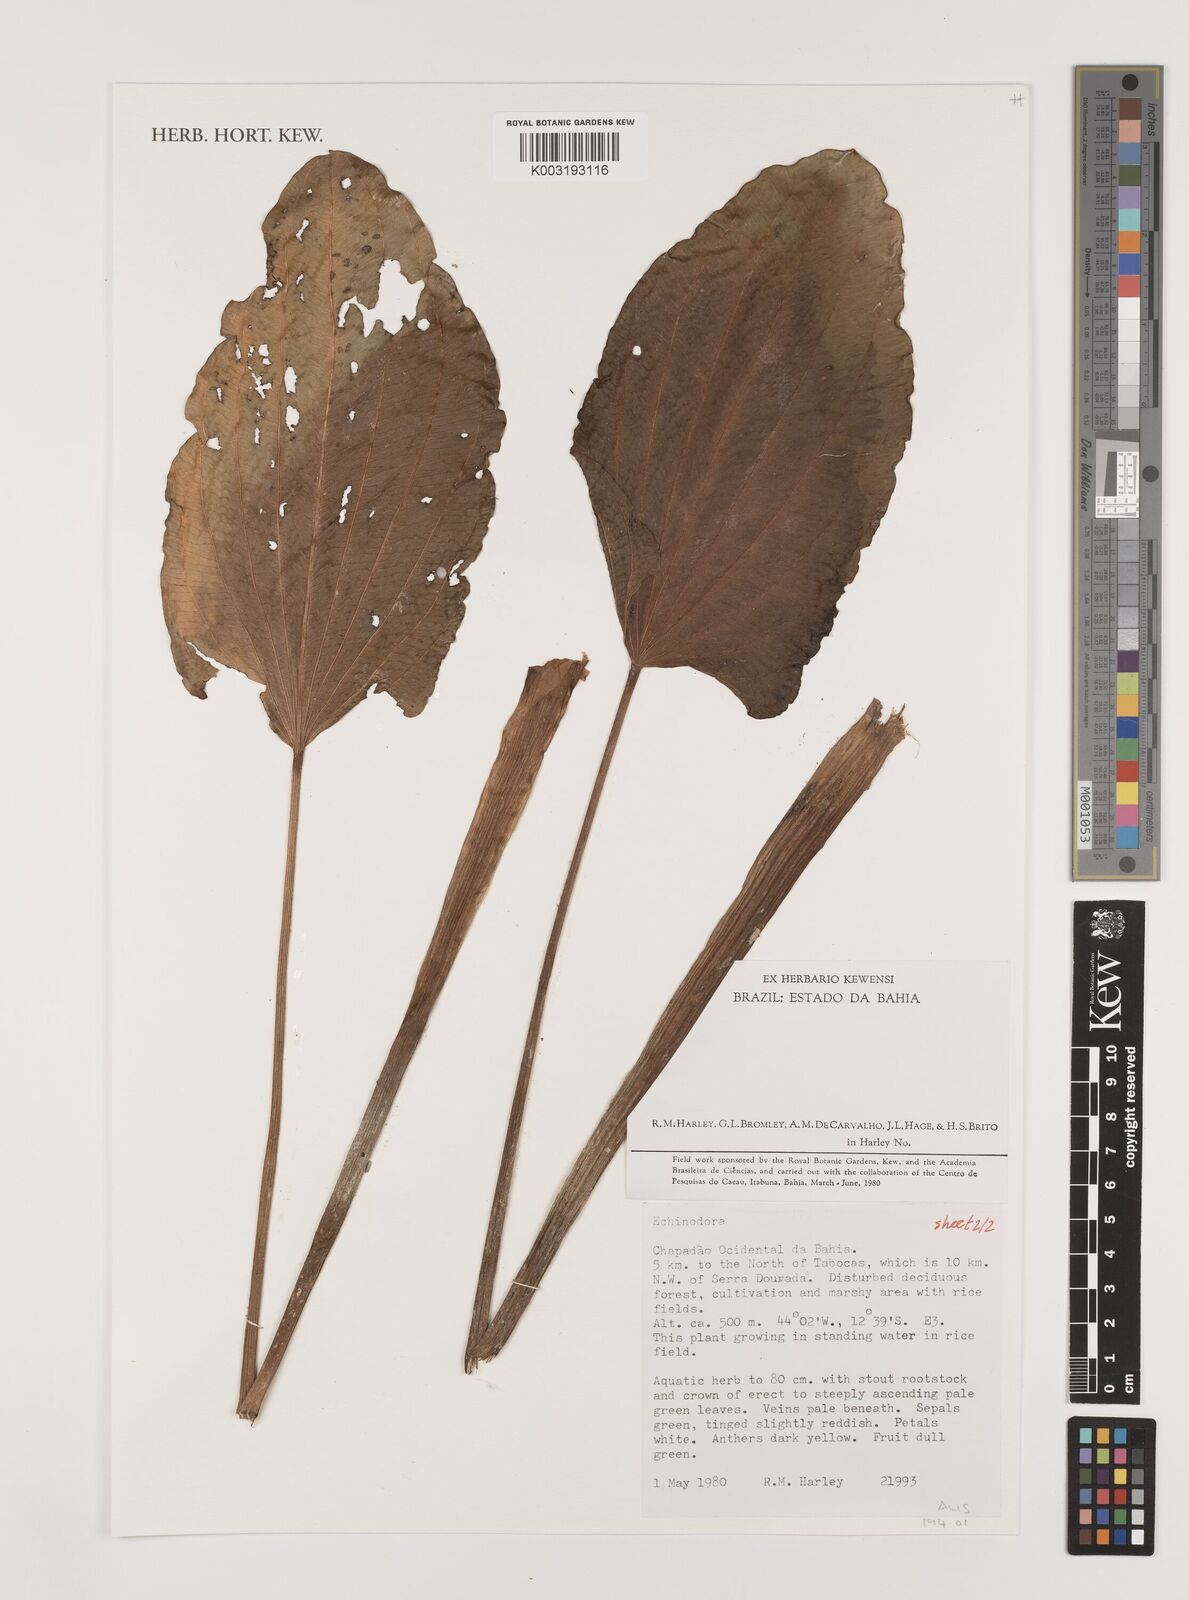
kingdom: Plantae
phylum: Tracheophyta
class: Liliopsida
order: Alismatales
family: Alismataceae
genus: Aquarius
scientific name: Aquarius bracteatus
